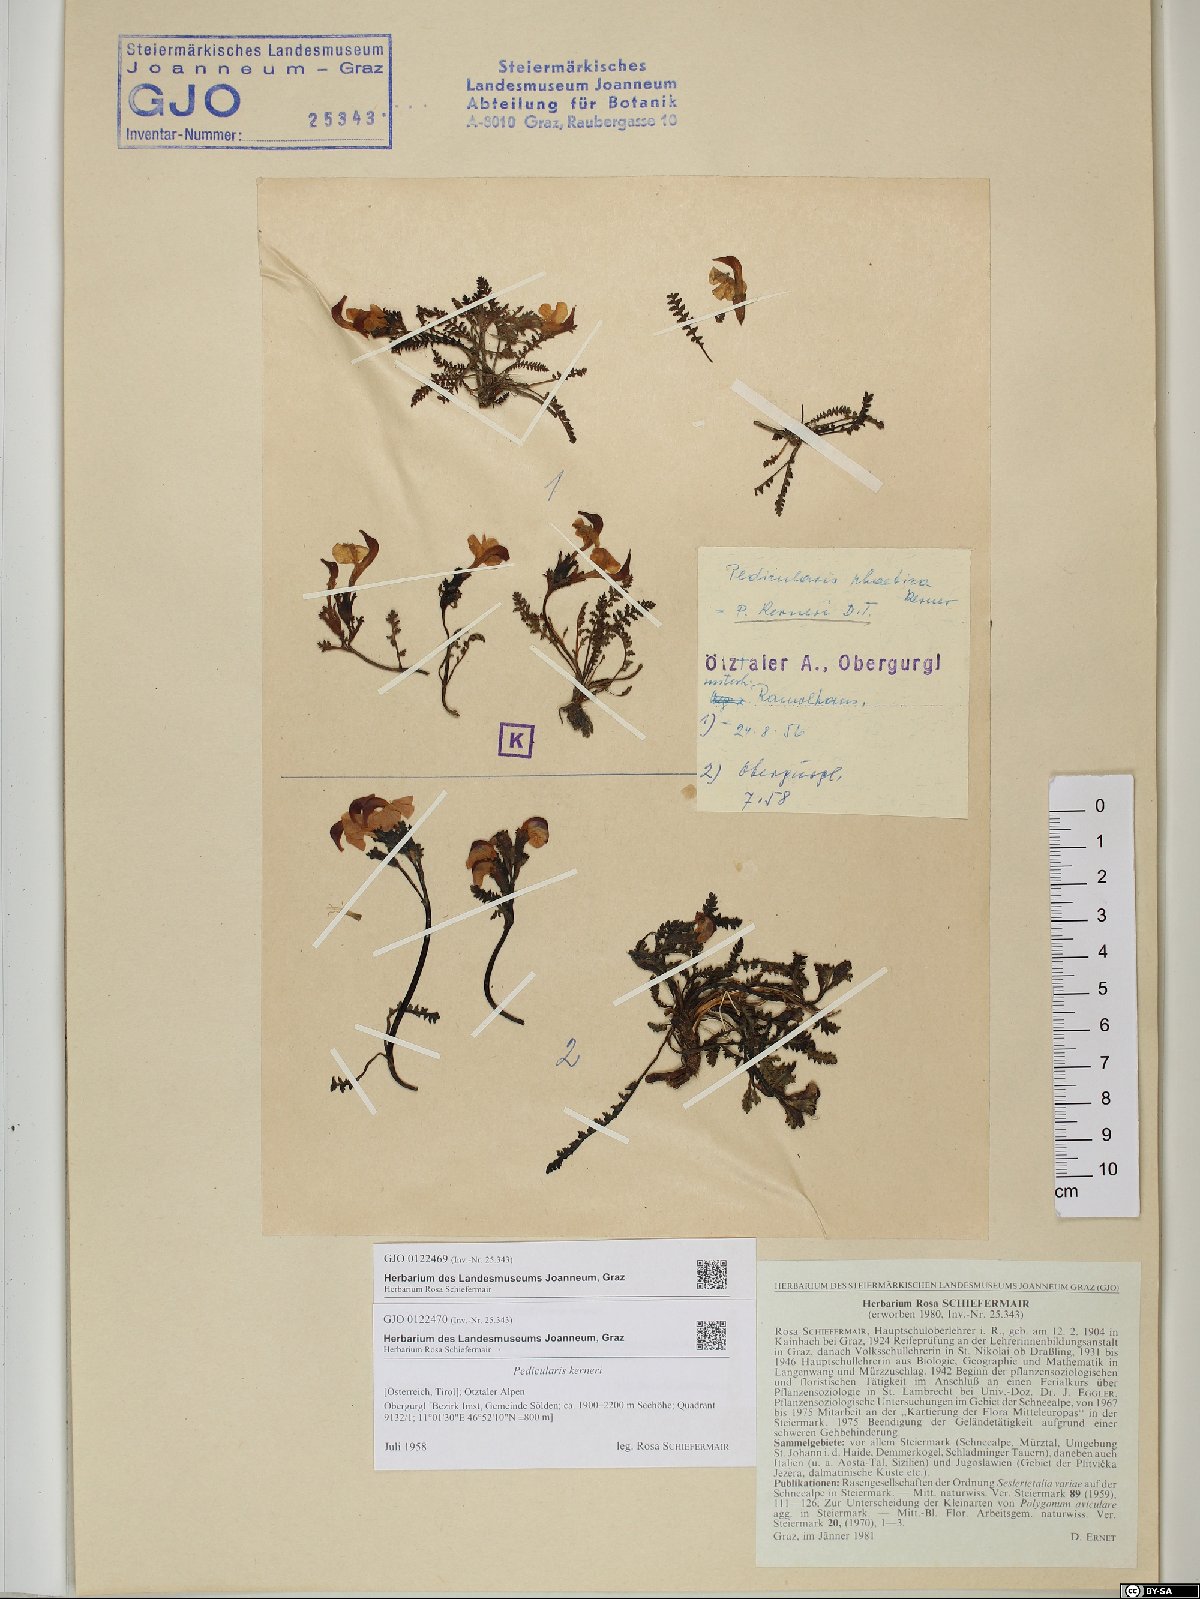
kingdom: Plantae
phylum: Tracheophyta
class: Magnoliopsida
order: Lamiales
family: Orobanchaceae
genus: Pedicularis
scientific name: Pedicularis kerneri
